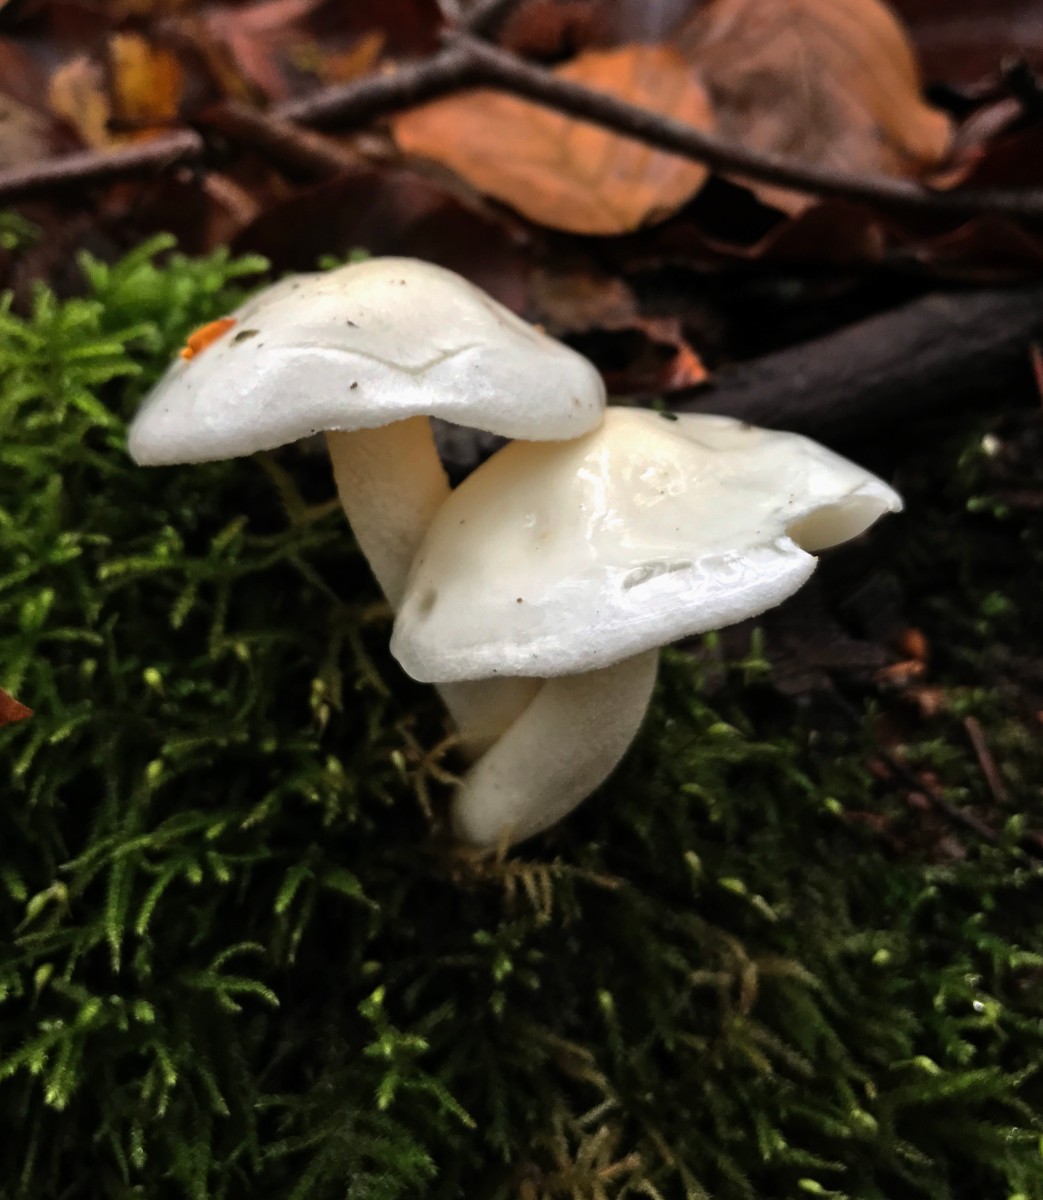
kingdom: Fungi
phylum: Basidiomycota
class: Agaricomycetes
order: Agaricales
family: Hygrophoraceae
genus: Hygrophorus
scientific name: Hygrophorus
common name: sneglehat
